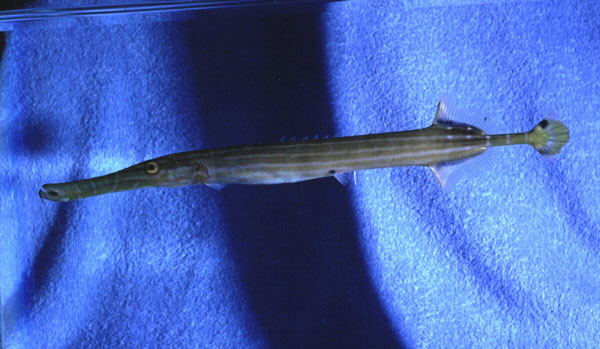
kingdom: Animalia
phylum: Chordata
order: Syngnathiformes
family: Aulostomidae
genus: Aulostomus
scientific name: Aulostomus chinensis
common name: Chinese trumpetfish
